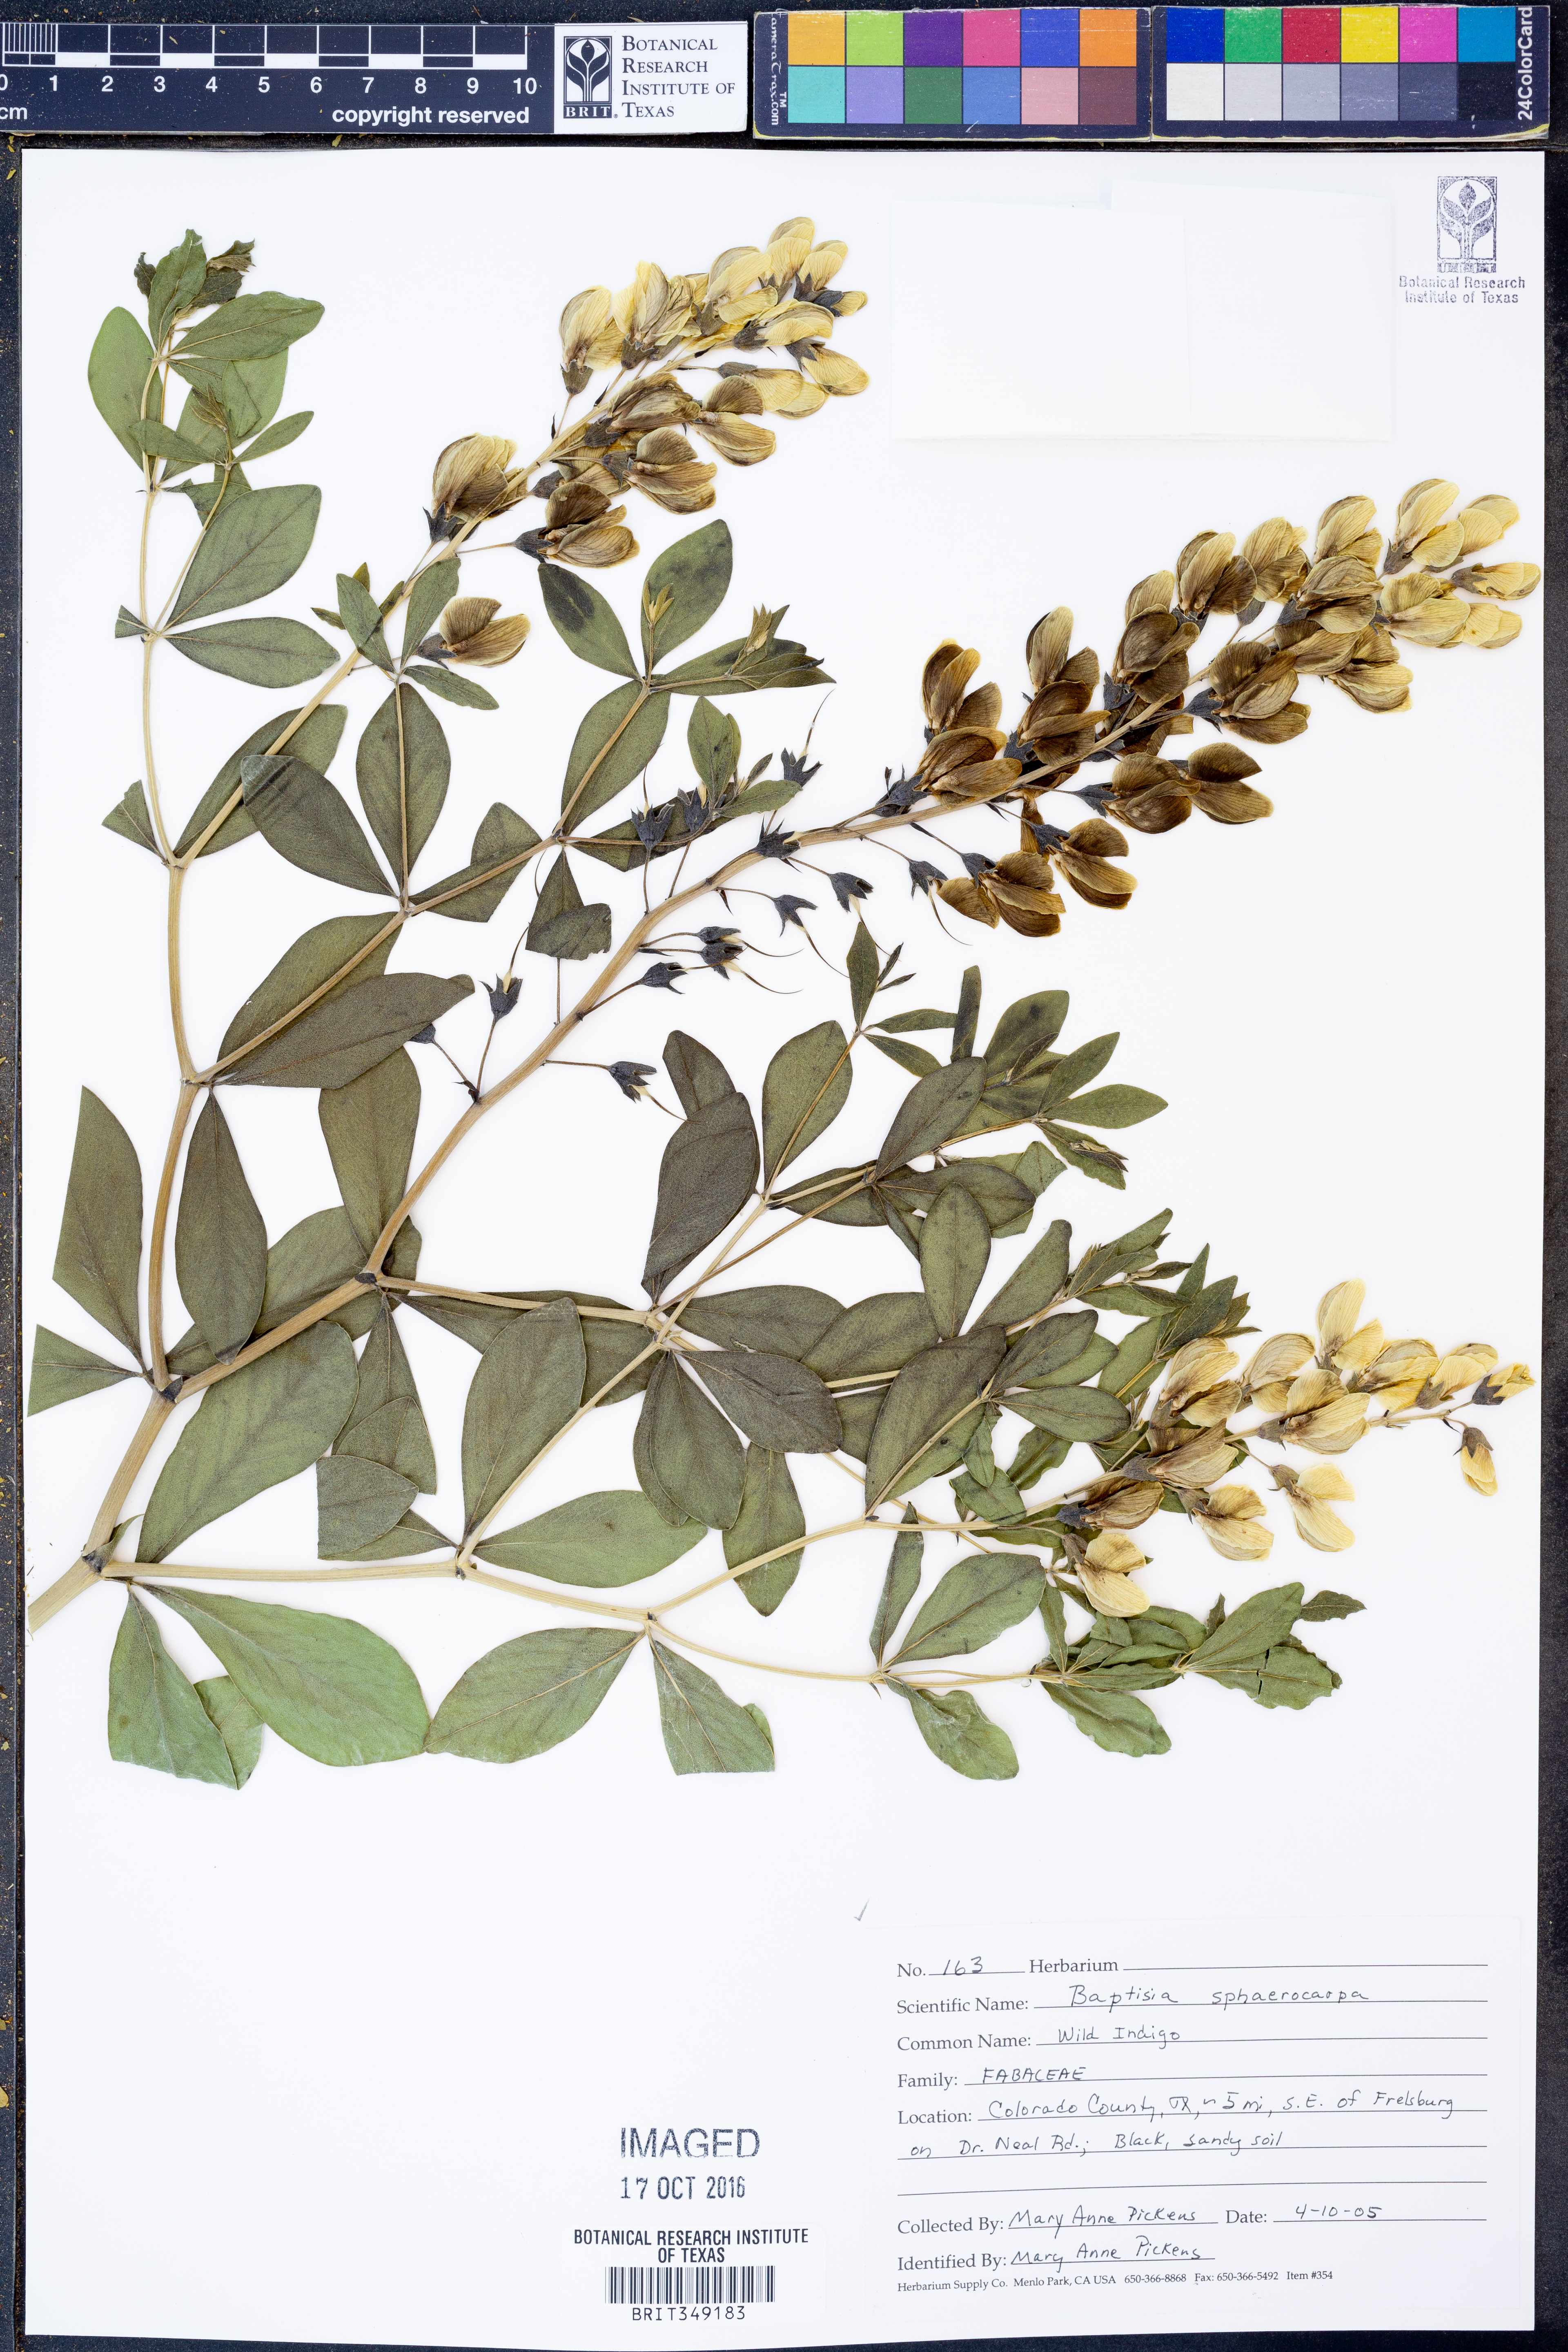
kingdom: Plantae
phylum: Tracheophyta
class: Magnoliopsida
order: Fabales
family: Fabaceae
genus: Baptisia
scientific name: Baptisia sphaerocarpa
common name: Round wild indigo
